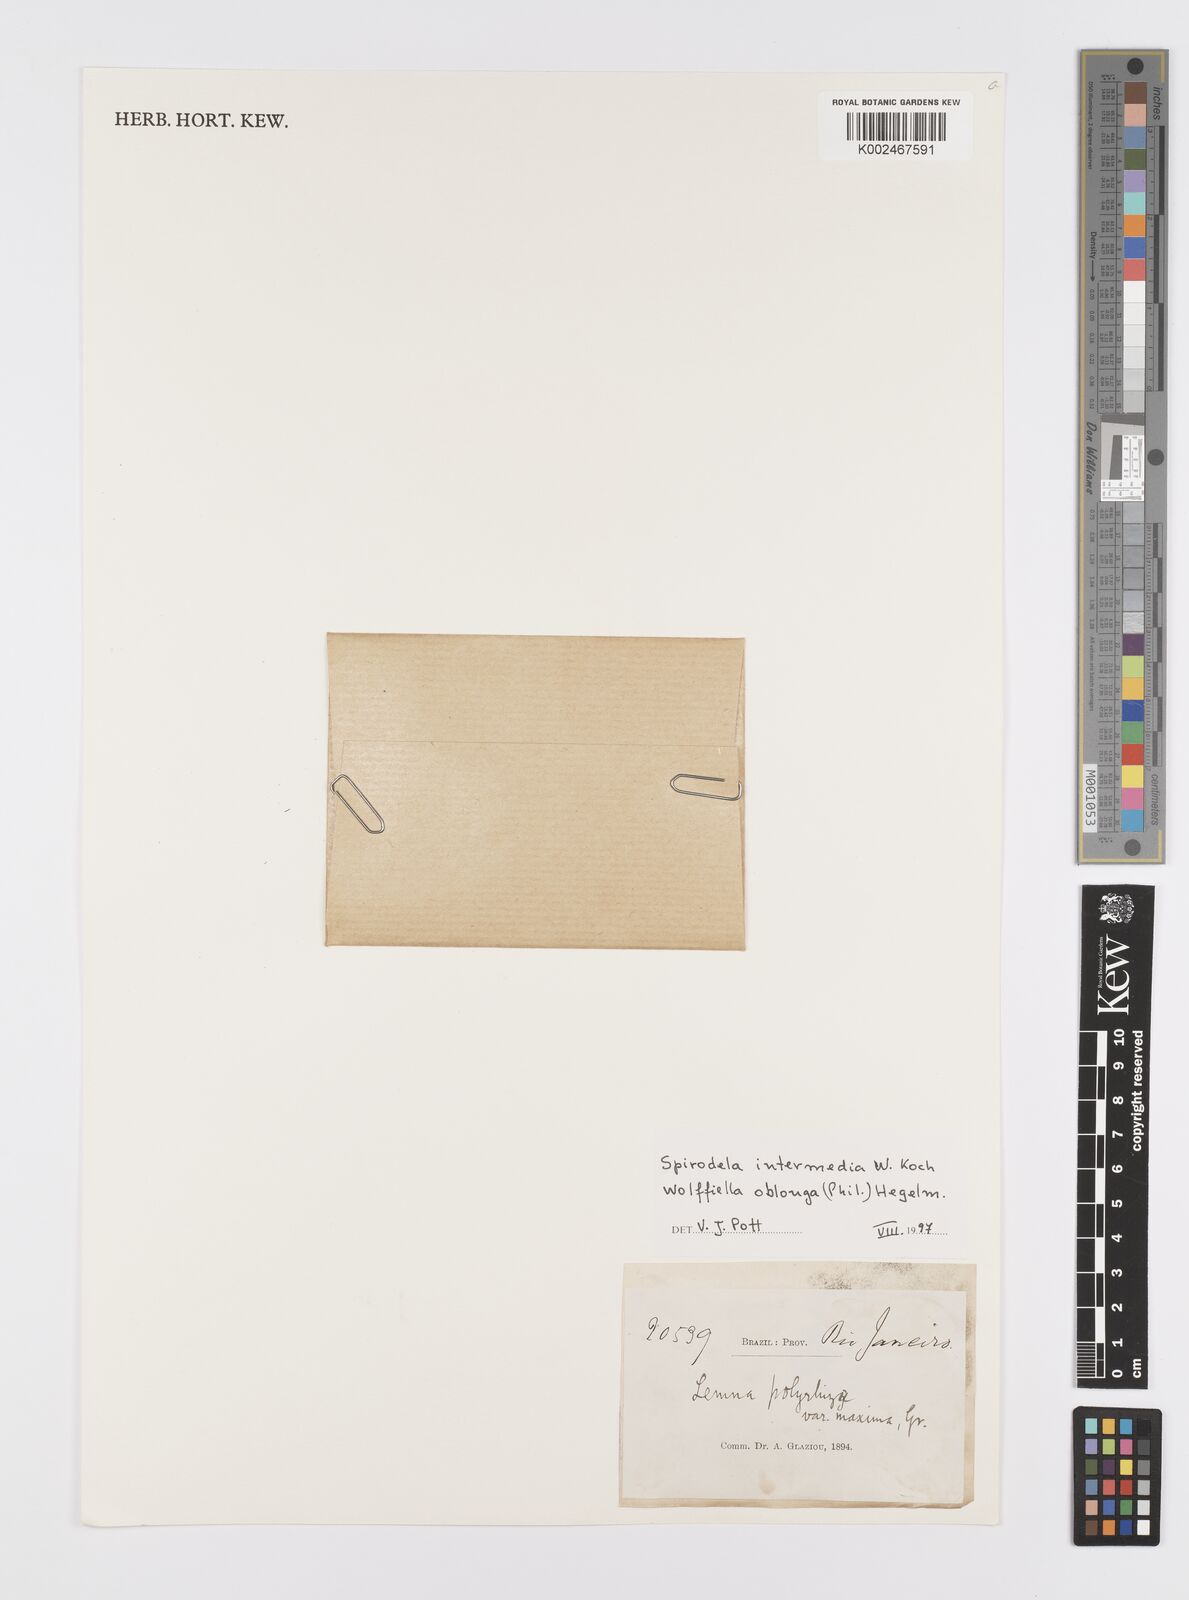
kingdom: Plantae
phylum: Tracheophyta
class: Liliopsida
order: Alismatales
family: Araceae
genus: Spirodela
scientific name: Spirodela punctata
